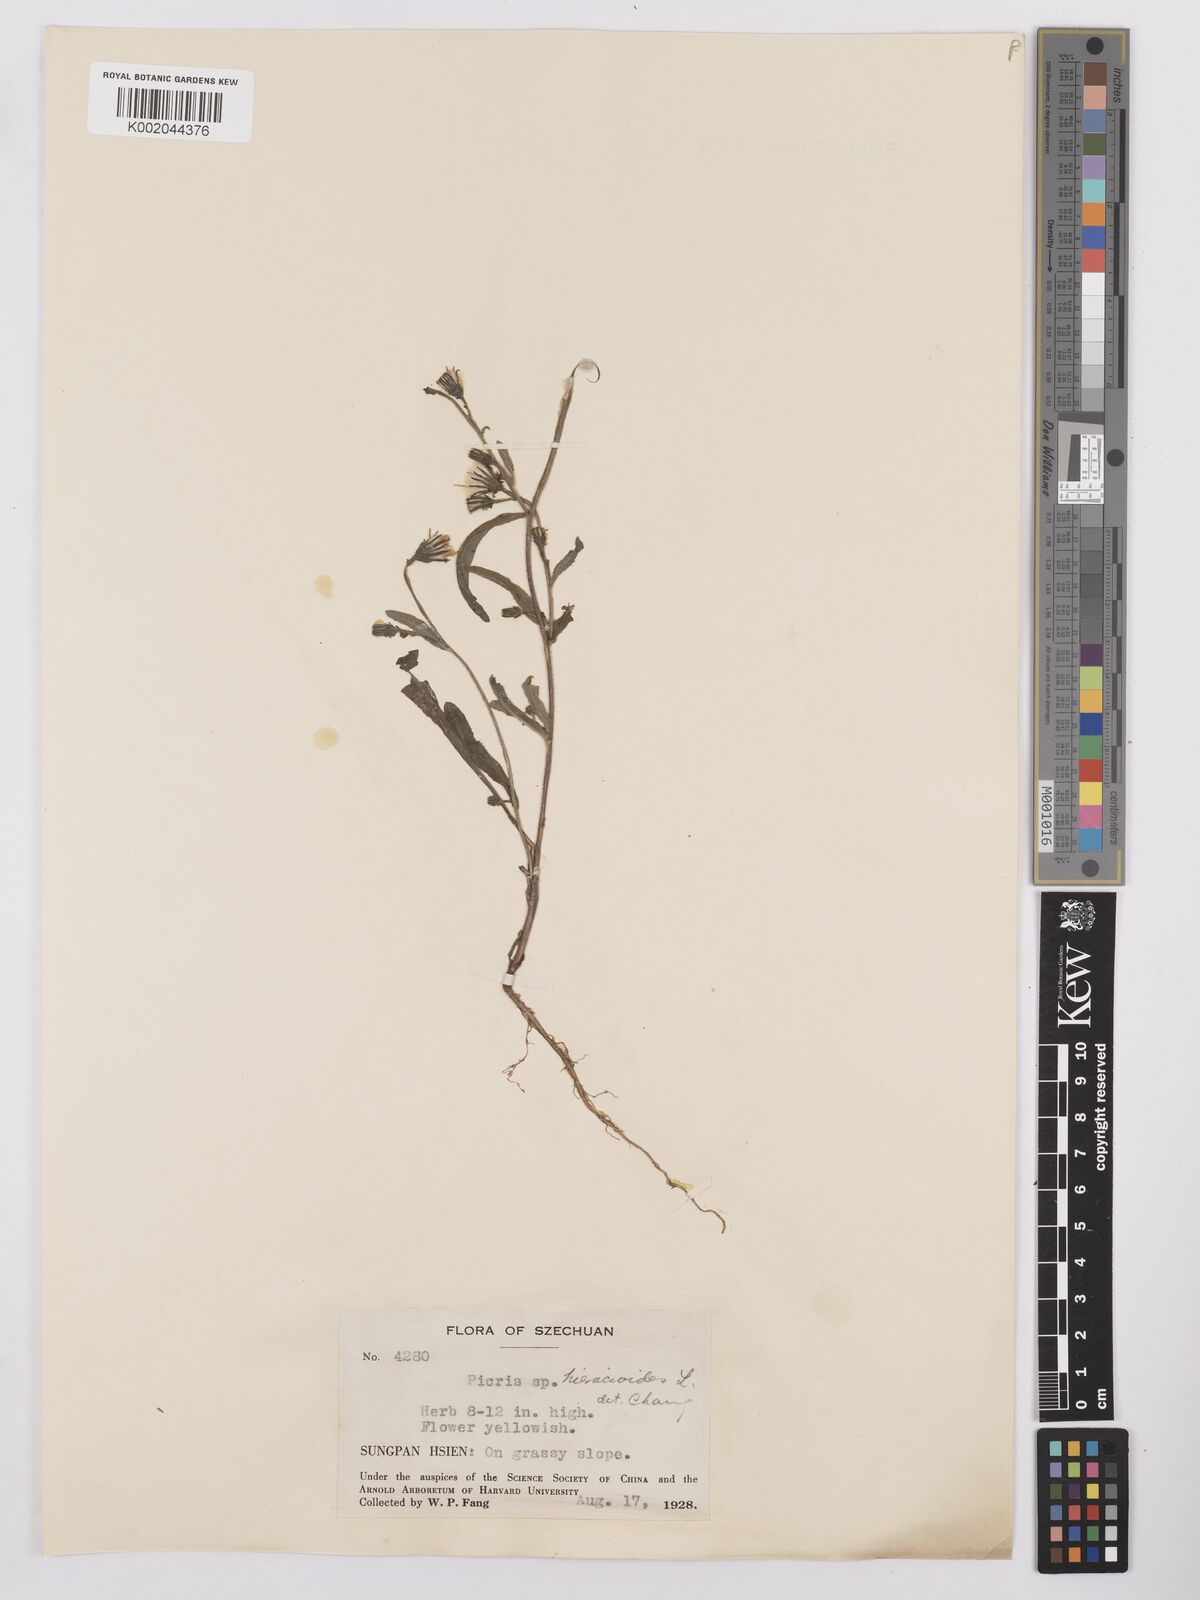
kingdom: Plantae
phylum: Tracheophyta
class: Magnoliopsida
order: Asterales
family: Asteraceae
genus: Picris
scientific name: Picris
